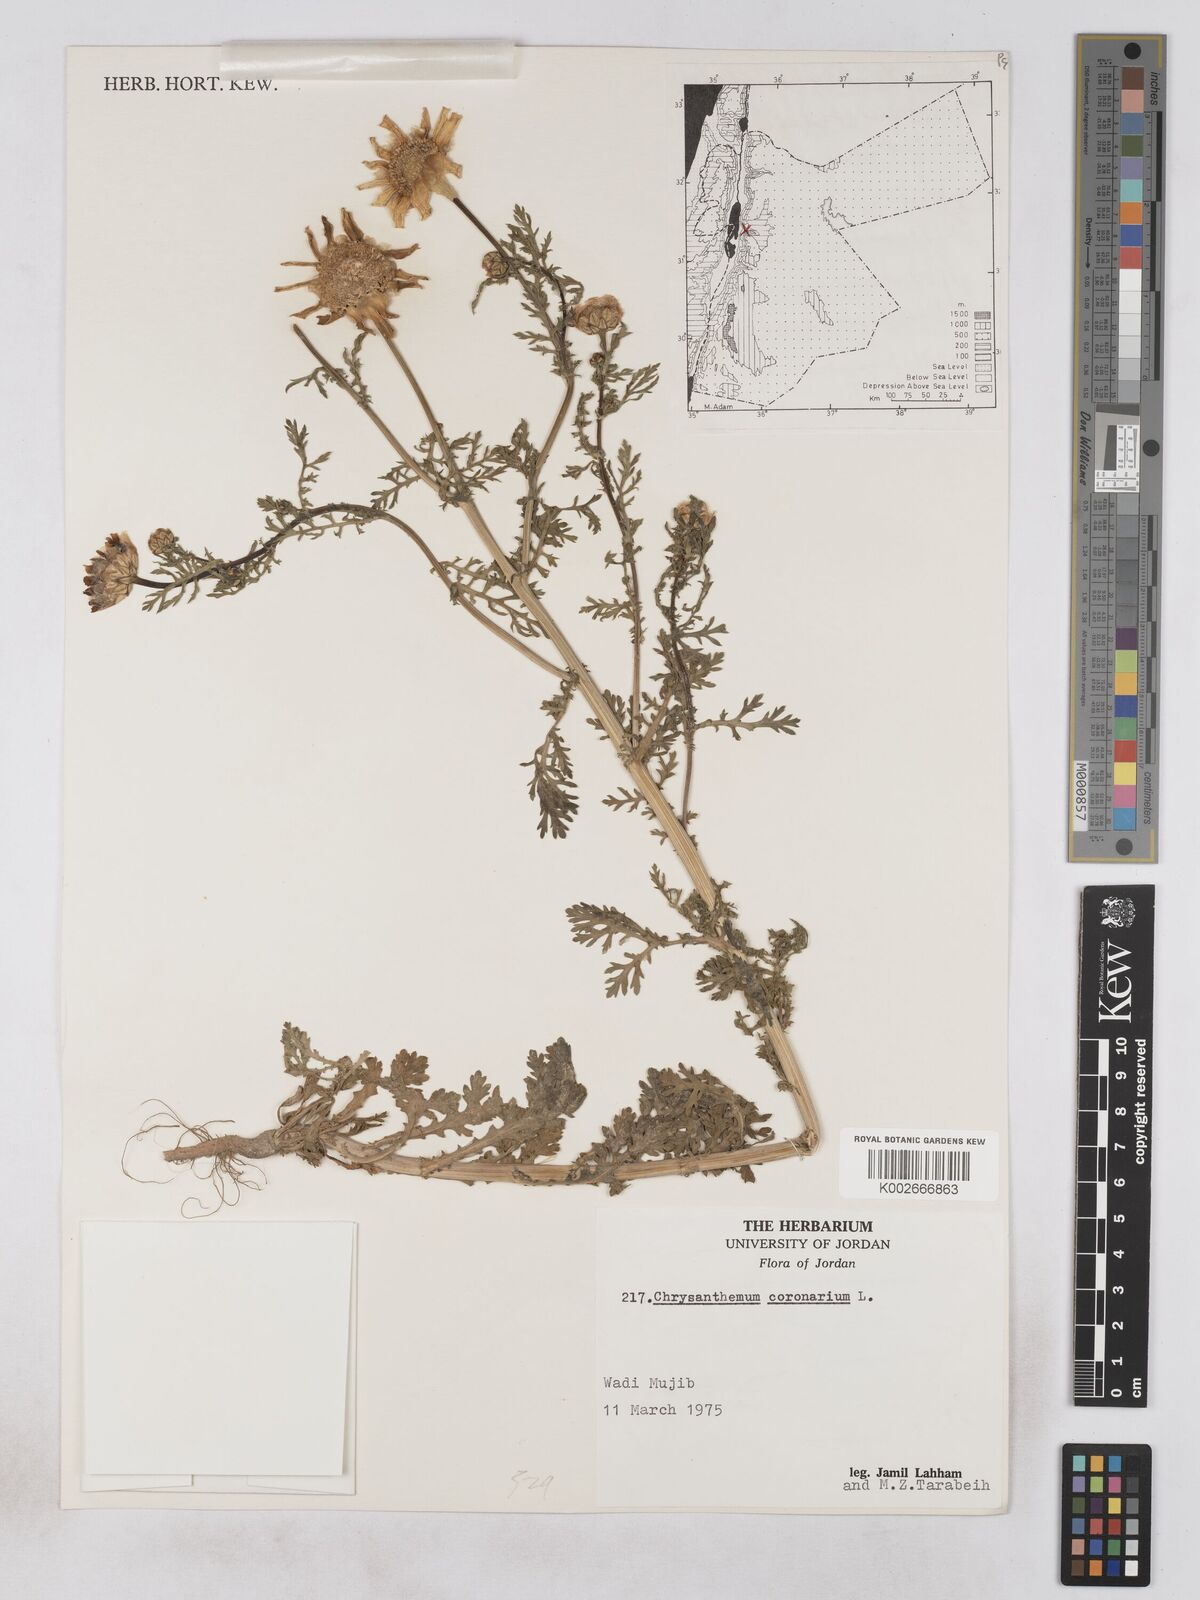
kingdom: Plantae
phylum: Tracheophyta
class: Magnoliopsida
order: Asterales
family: Asteraceae
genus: Glebionis
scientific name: Glebionis coronaria
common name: Crowndaisy
